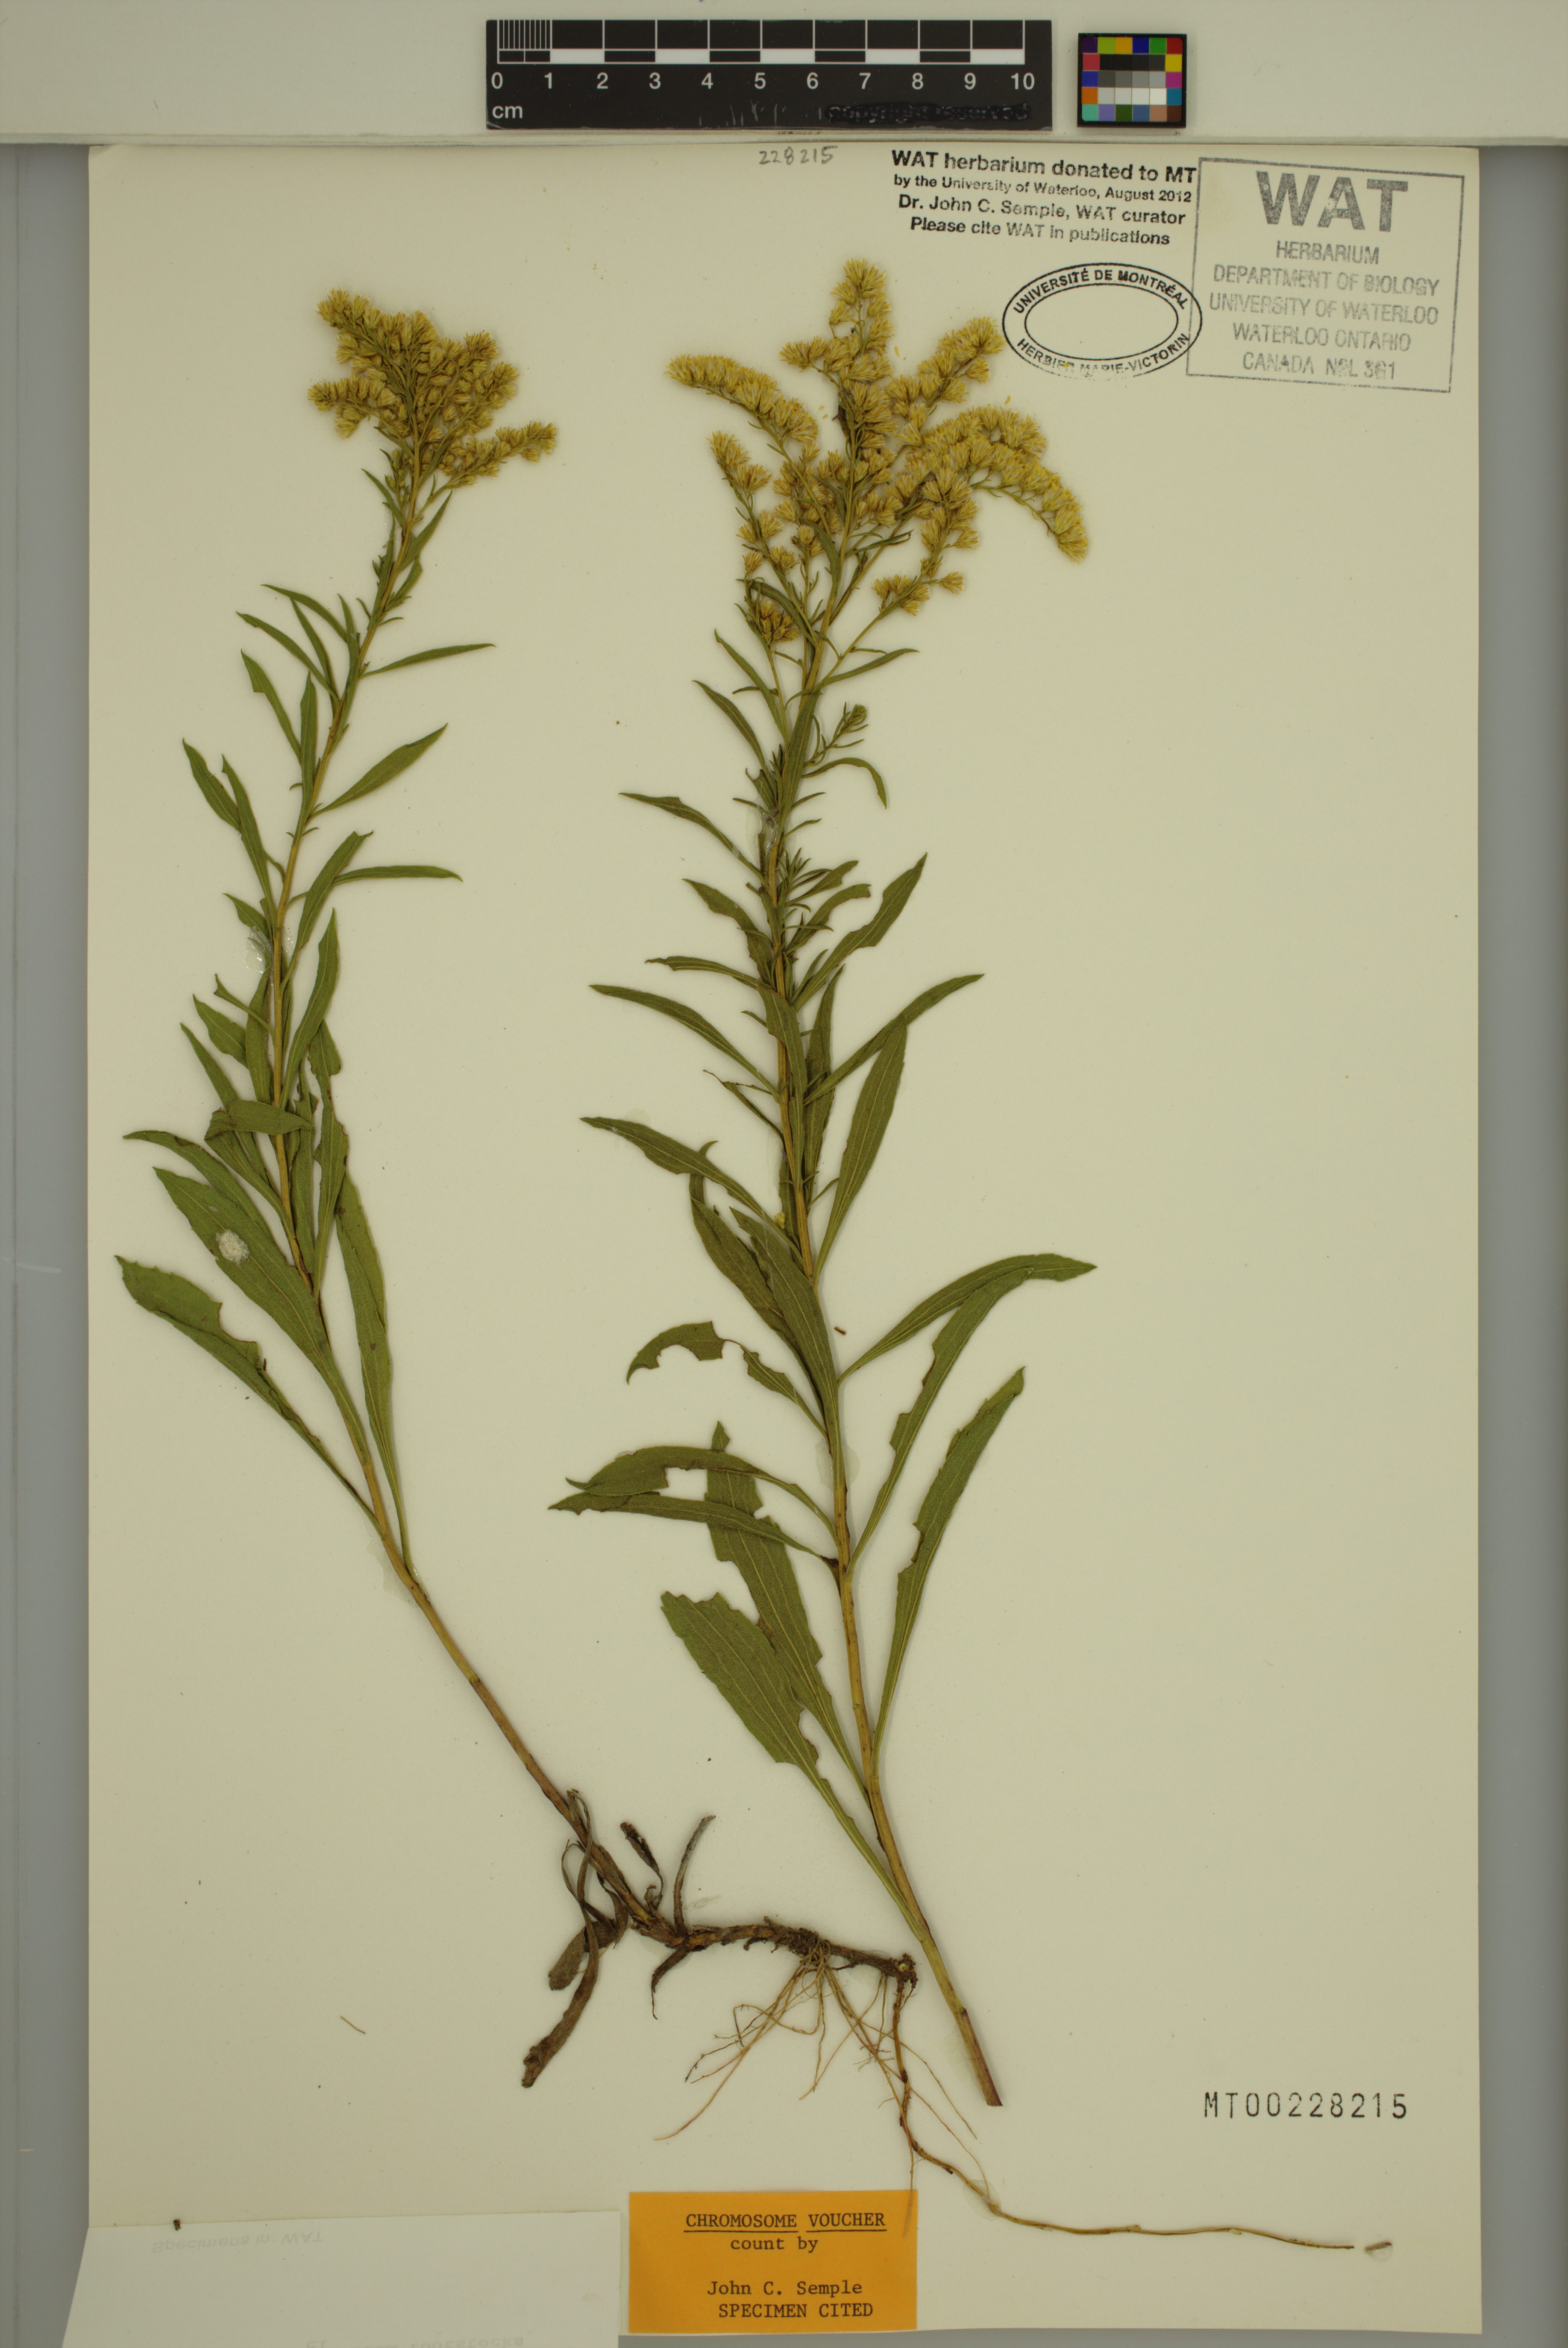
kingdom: Plantae
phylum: Tracheophyta
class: Magnoliopsida
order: Asterales
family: Asteraceae
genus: Solidago
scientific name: Solidago missouriensis
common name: Prairie goldenrod
